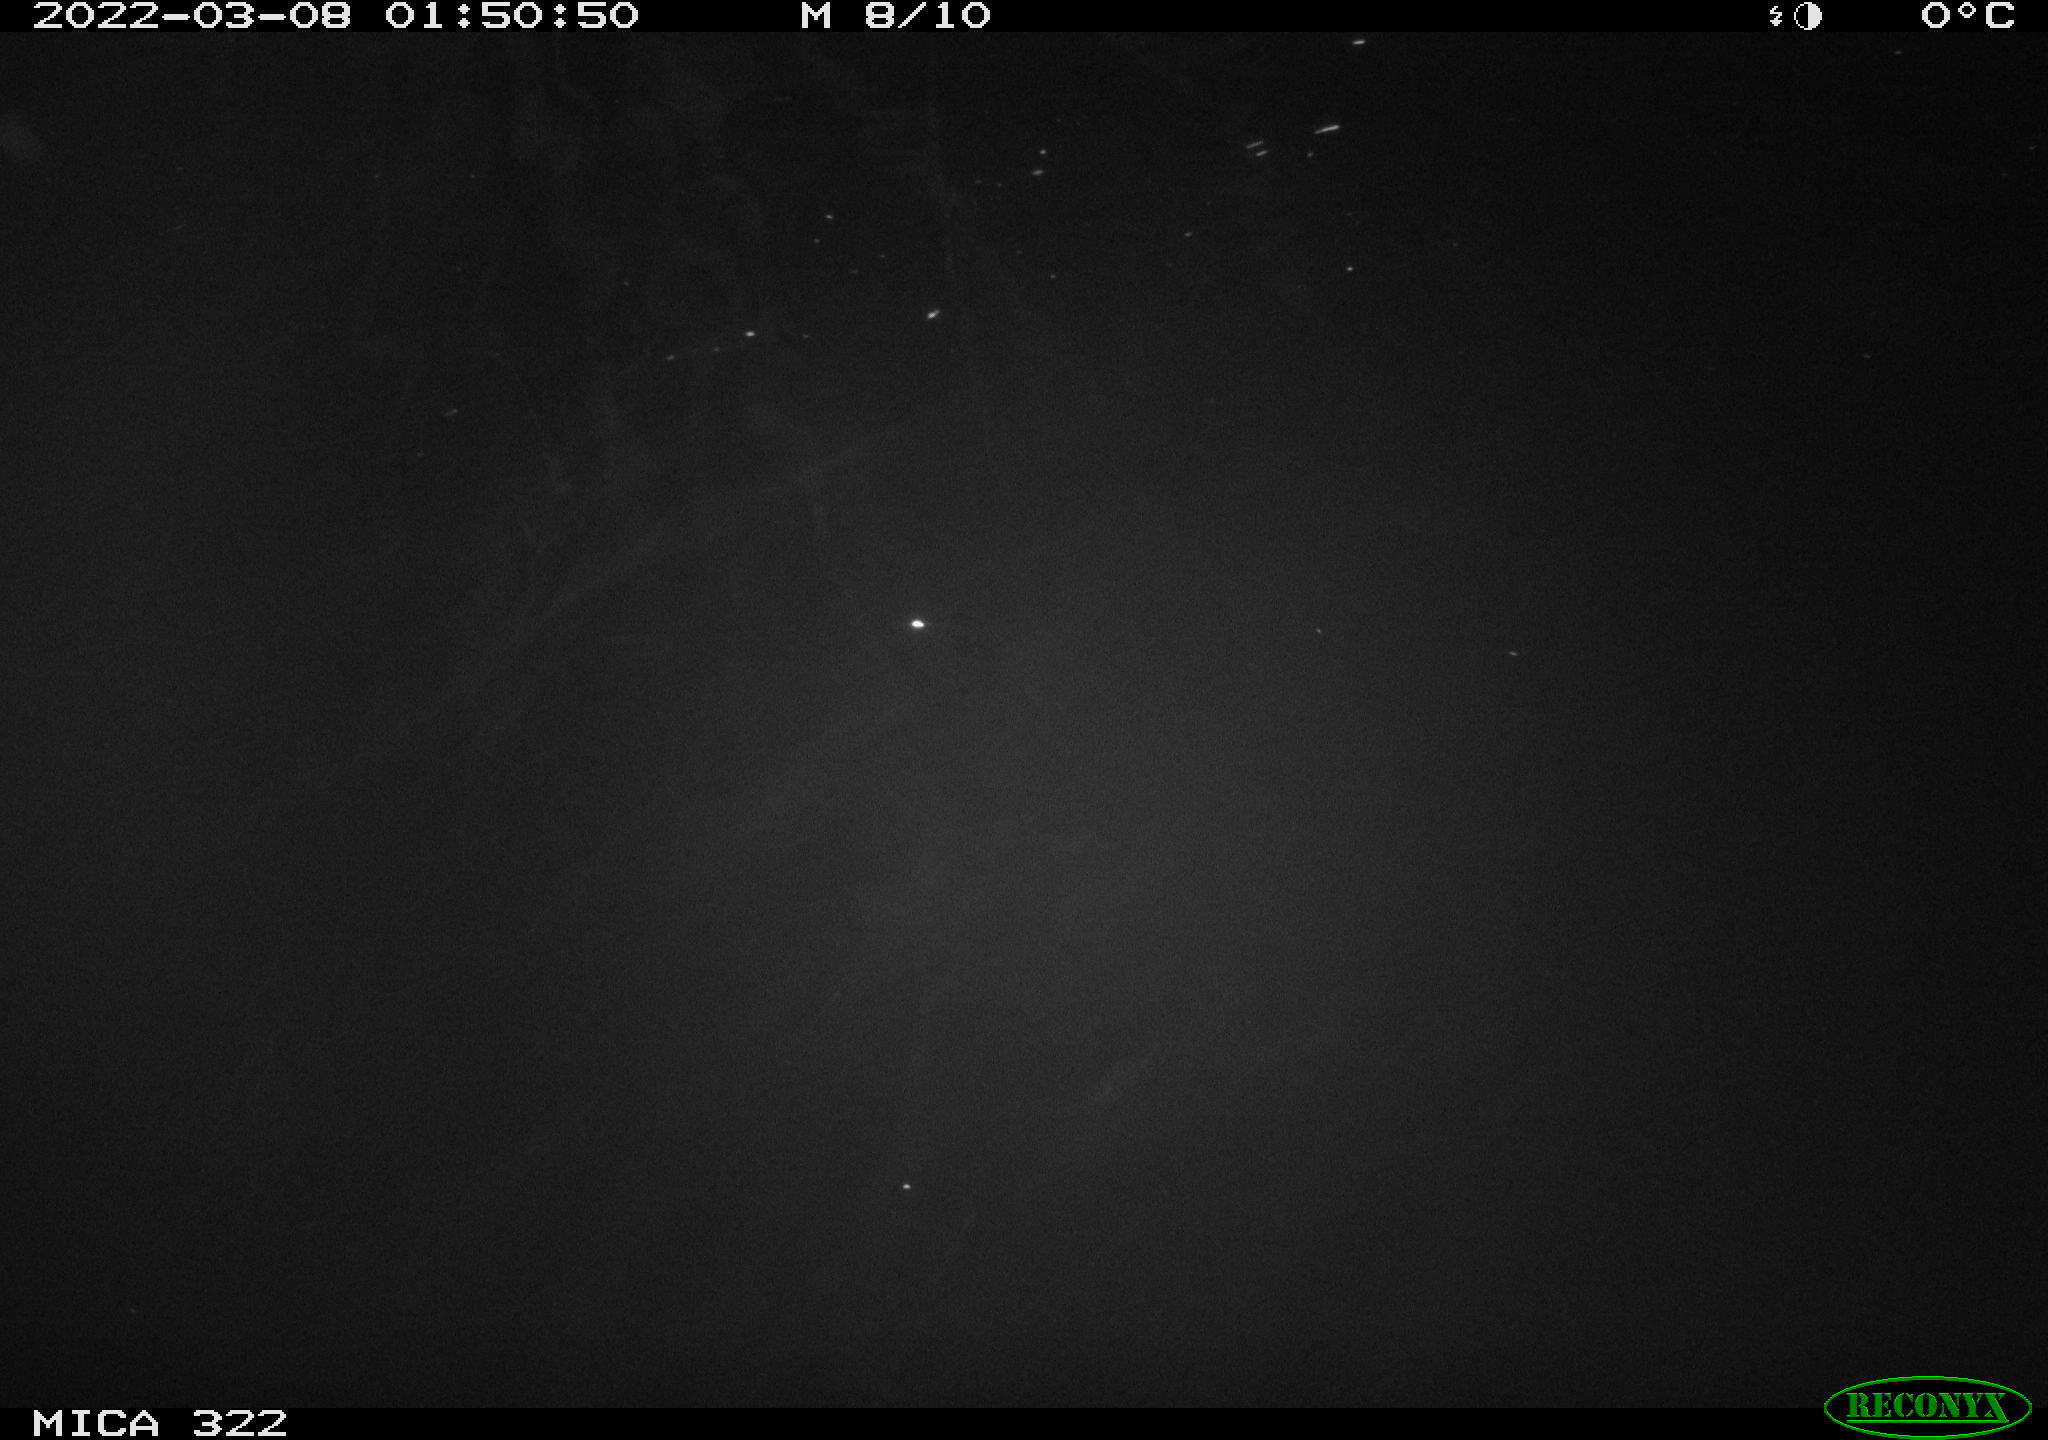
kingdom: Animalia
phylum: Chordata
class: Aves
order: Anseriformes
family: Anatidae
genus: Anas
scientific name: Anas platyrhynchos
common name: Mallard
